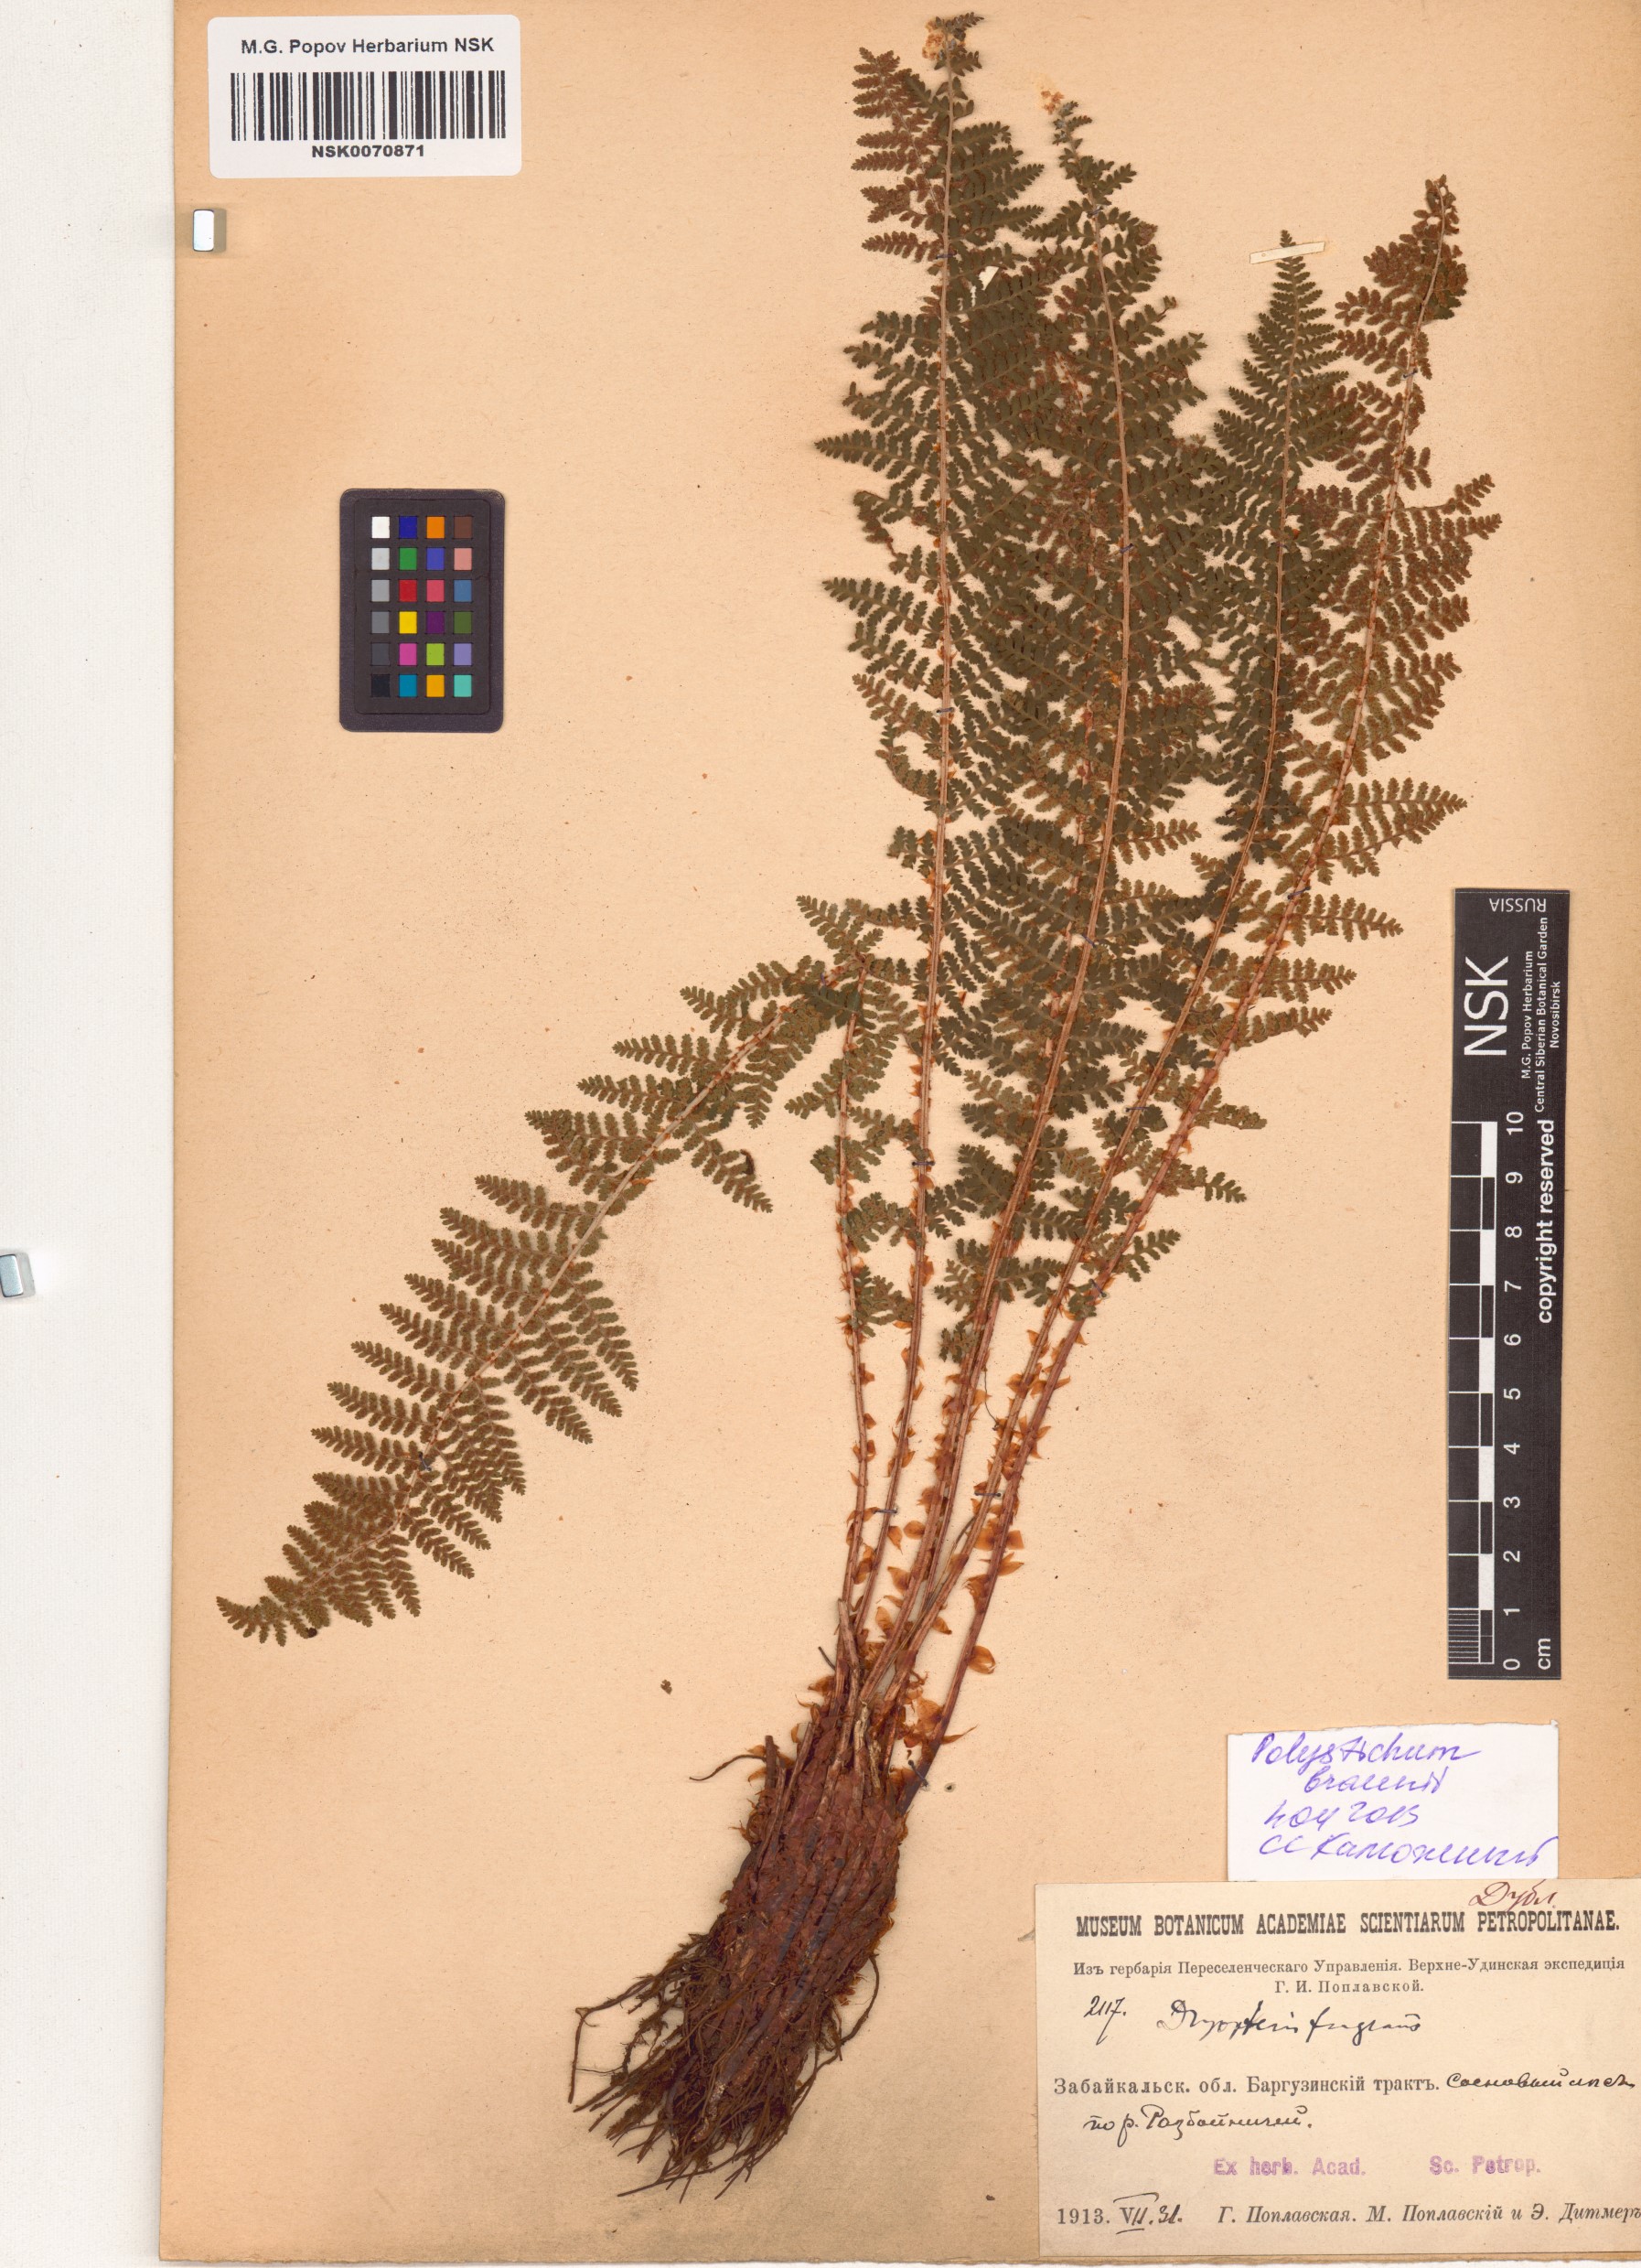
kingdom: Plantae
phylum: Tracheophyta
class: Polypodiopsida
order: Polypodiales
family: Dryopteridaceae
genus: Polystichum
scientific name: Polystichum braunii
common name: Braun's holly fern
